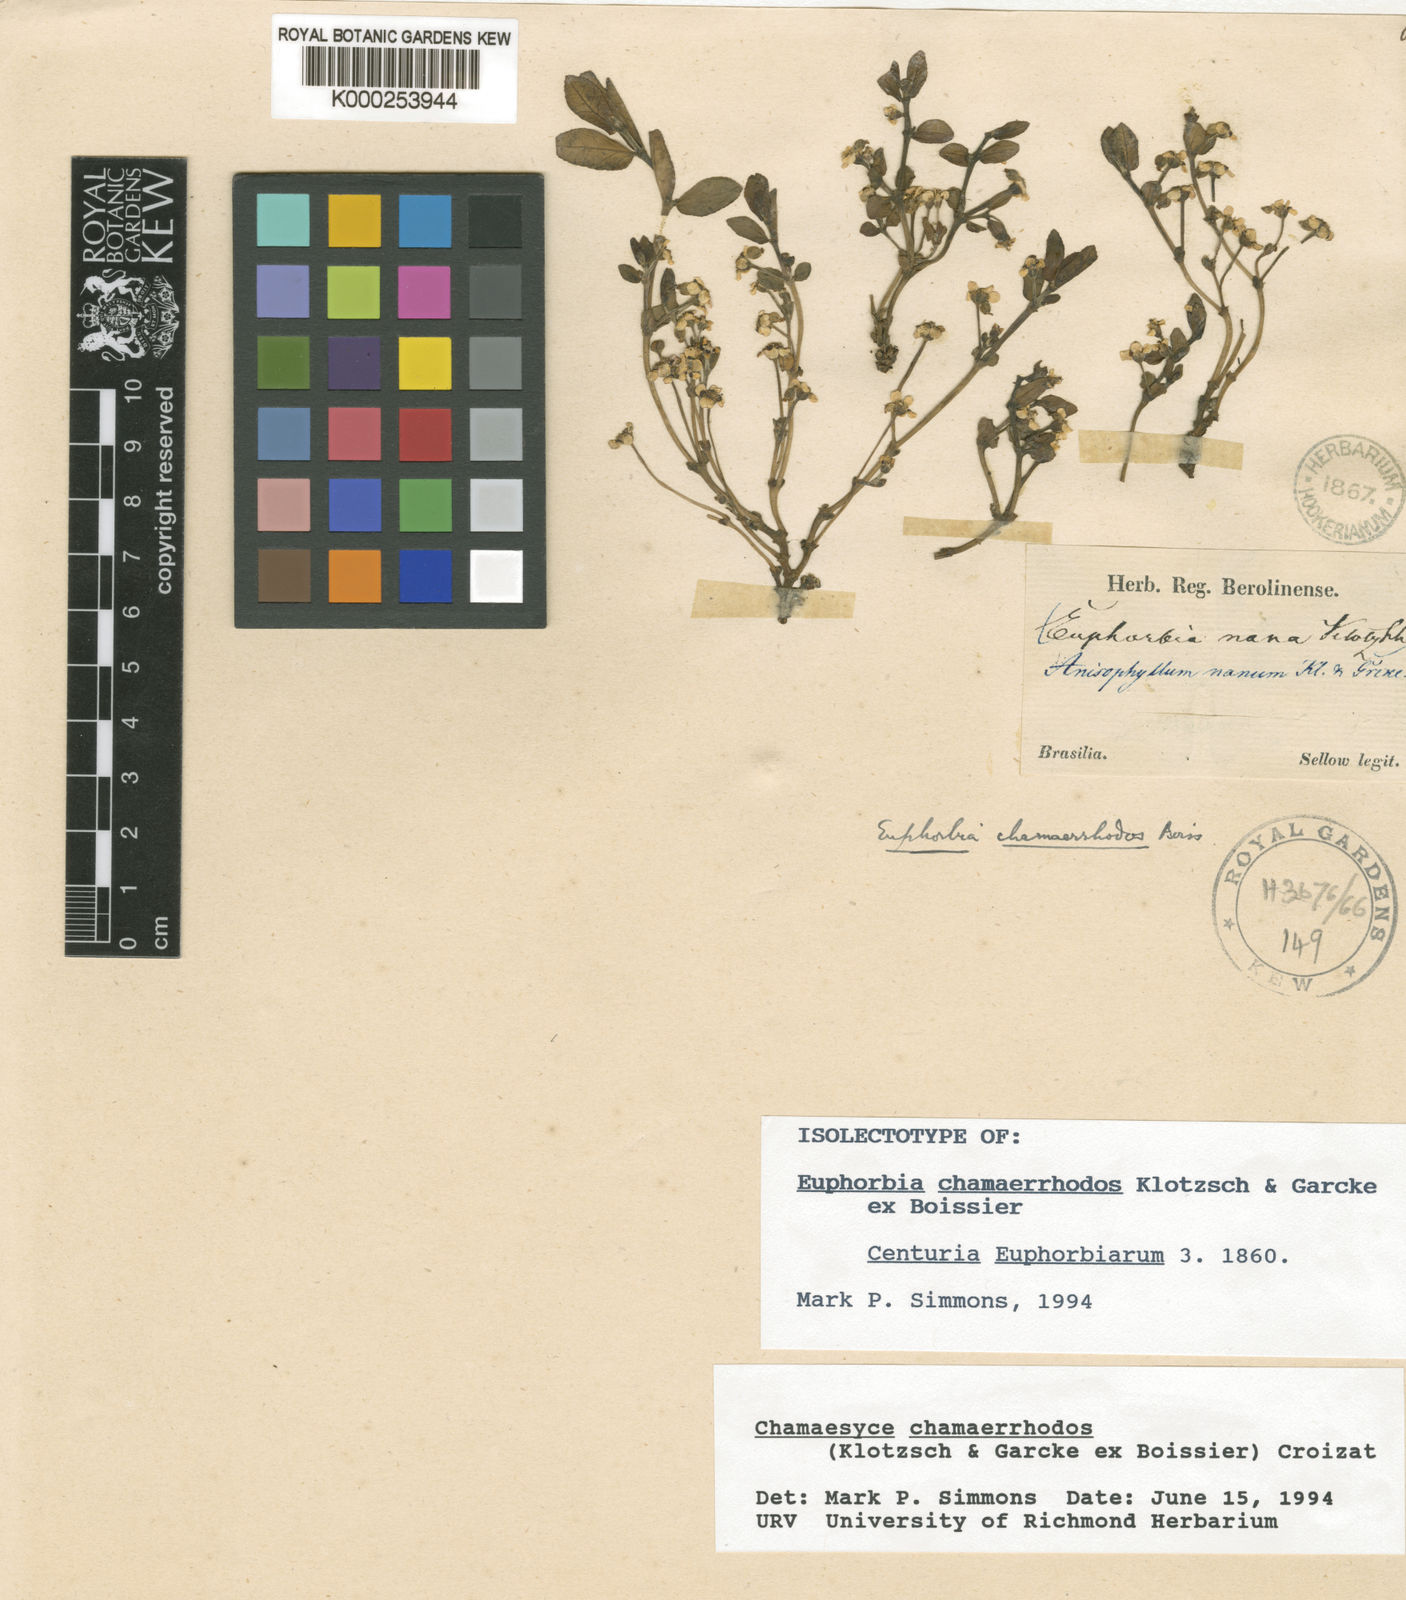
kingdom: Plantae
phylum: Tracheophyta
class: Magnoliopsida
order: Malpighiales
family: Euphorbiaceae
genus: Euphorbia
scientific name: Euphorbia chamaerrhodos
